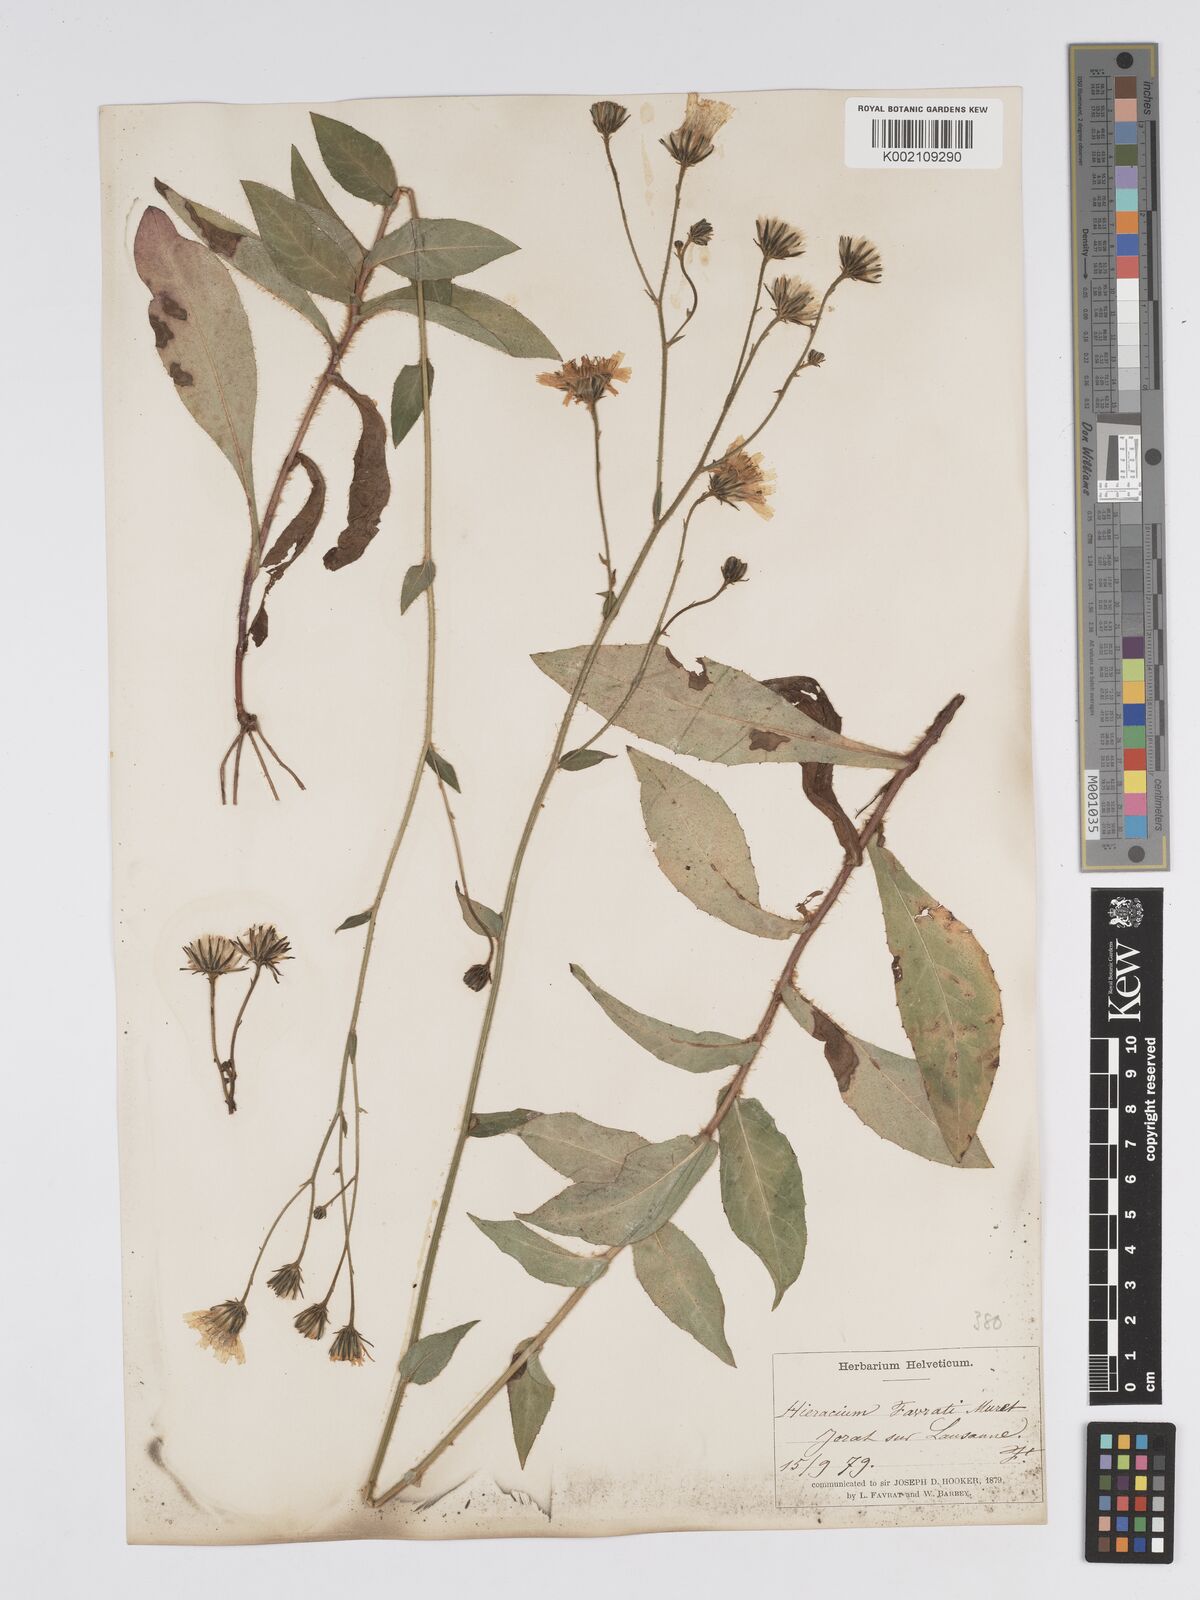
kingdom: Plantae
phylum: Tracheophyta
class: Magnoliopsida
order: Asterales
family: Asteraceae
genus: Hieracium
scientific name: Hieracium favratii
